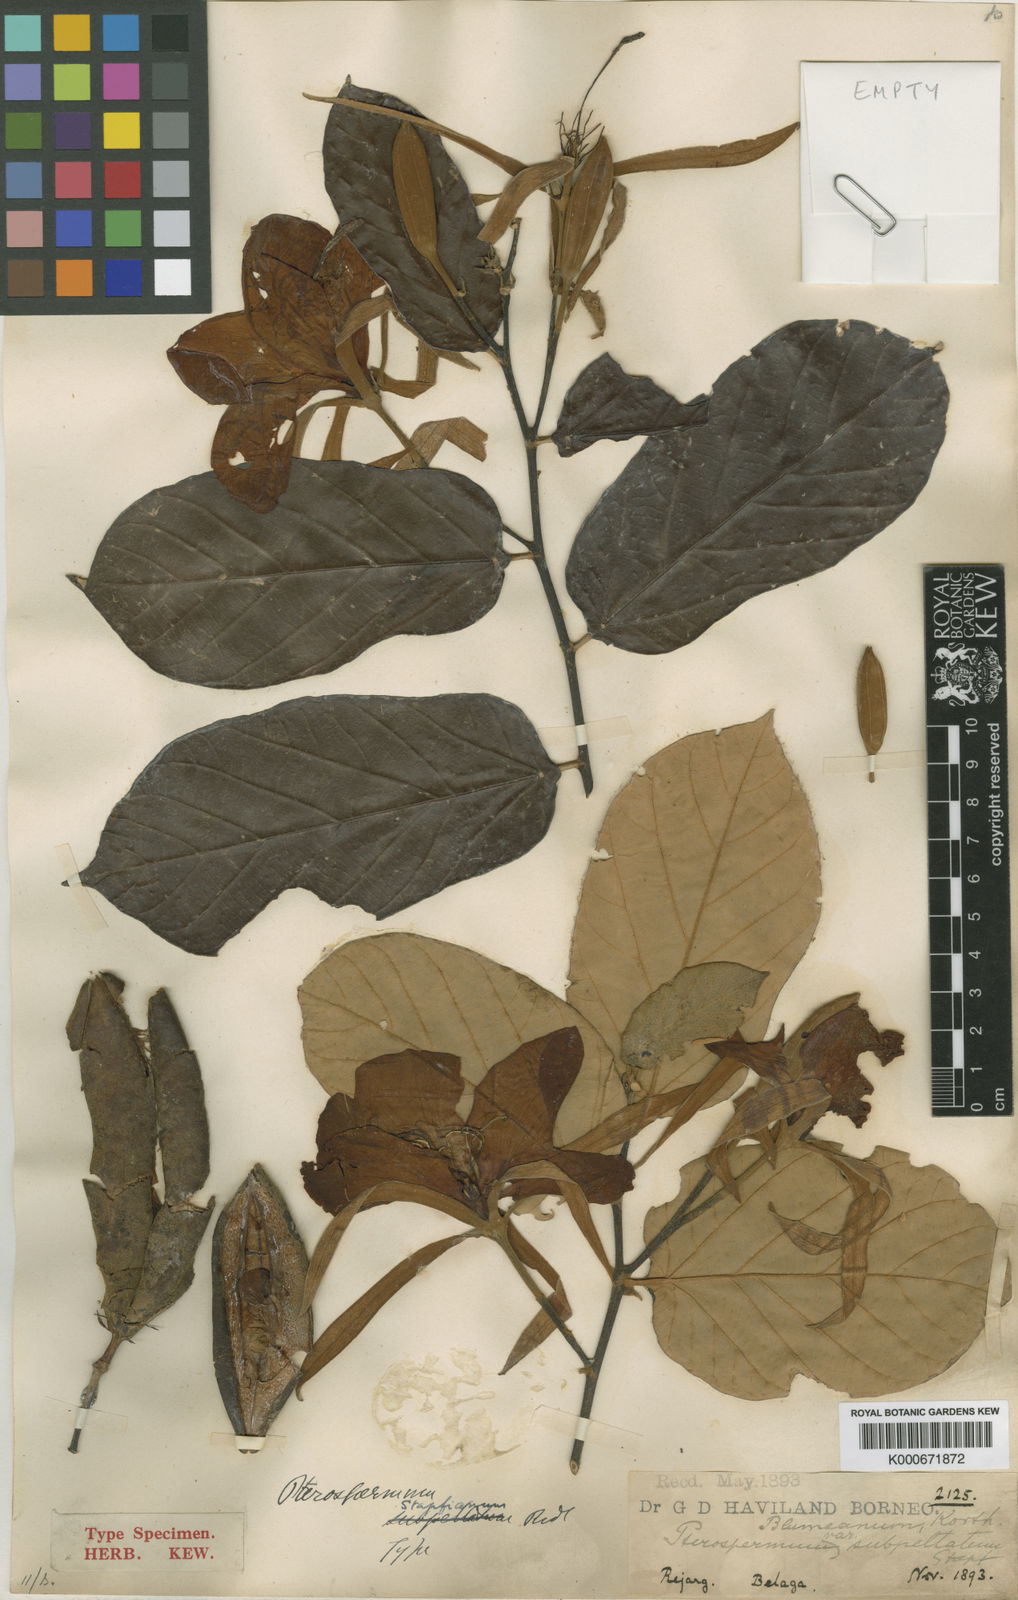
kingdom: Plantae
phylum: Tracheophyta
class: Magnoliopsida
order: Malvales
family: Malvaceae
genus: Pterospermum
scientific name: Pterospermum subpeltatum
